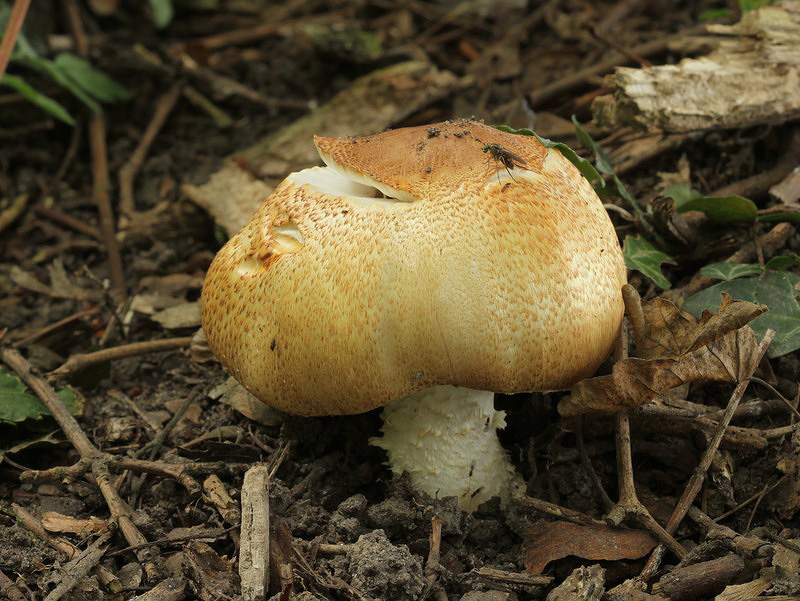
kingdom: Fungi
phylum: Basidiomycota
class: Agaricomycetes
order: Agaricales
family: Agaricaceae
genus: Agaricus
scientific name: Agaricus augustus
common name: prægtig champignon
